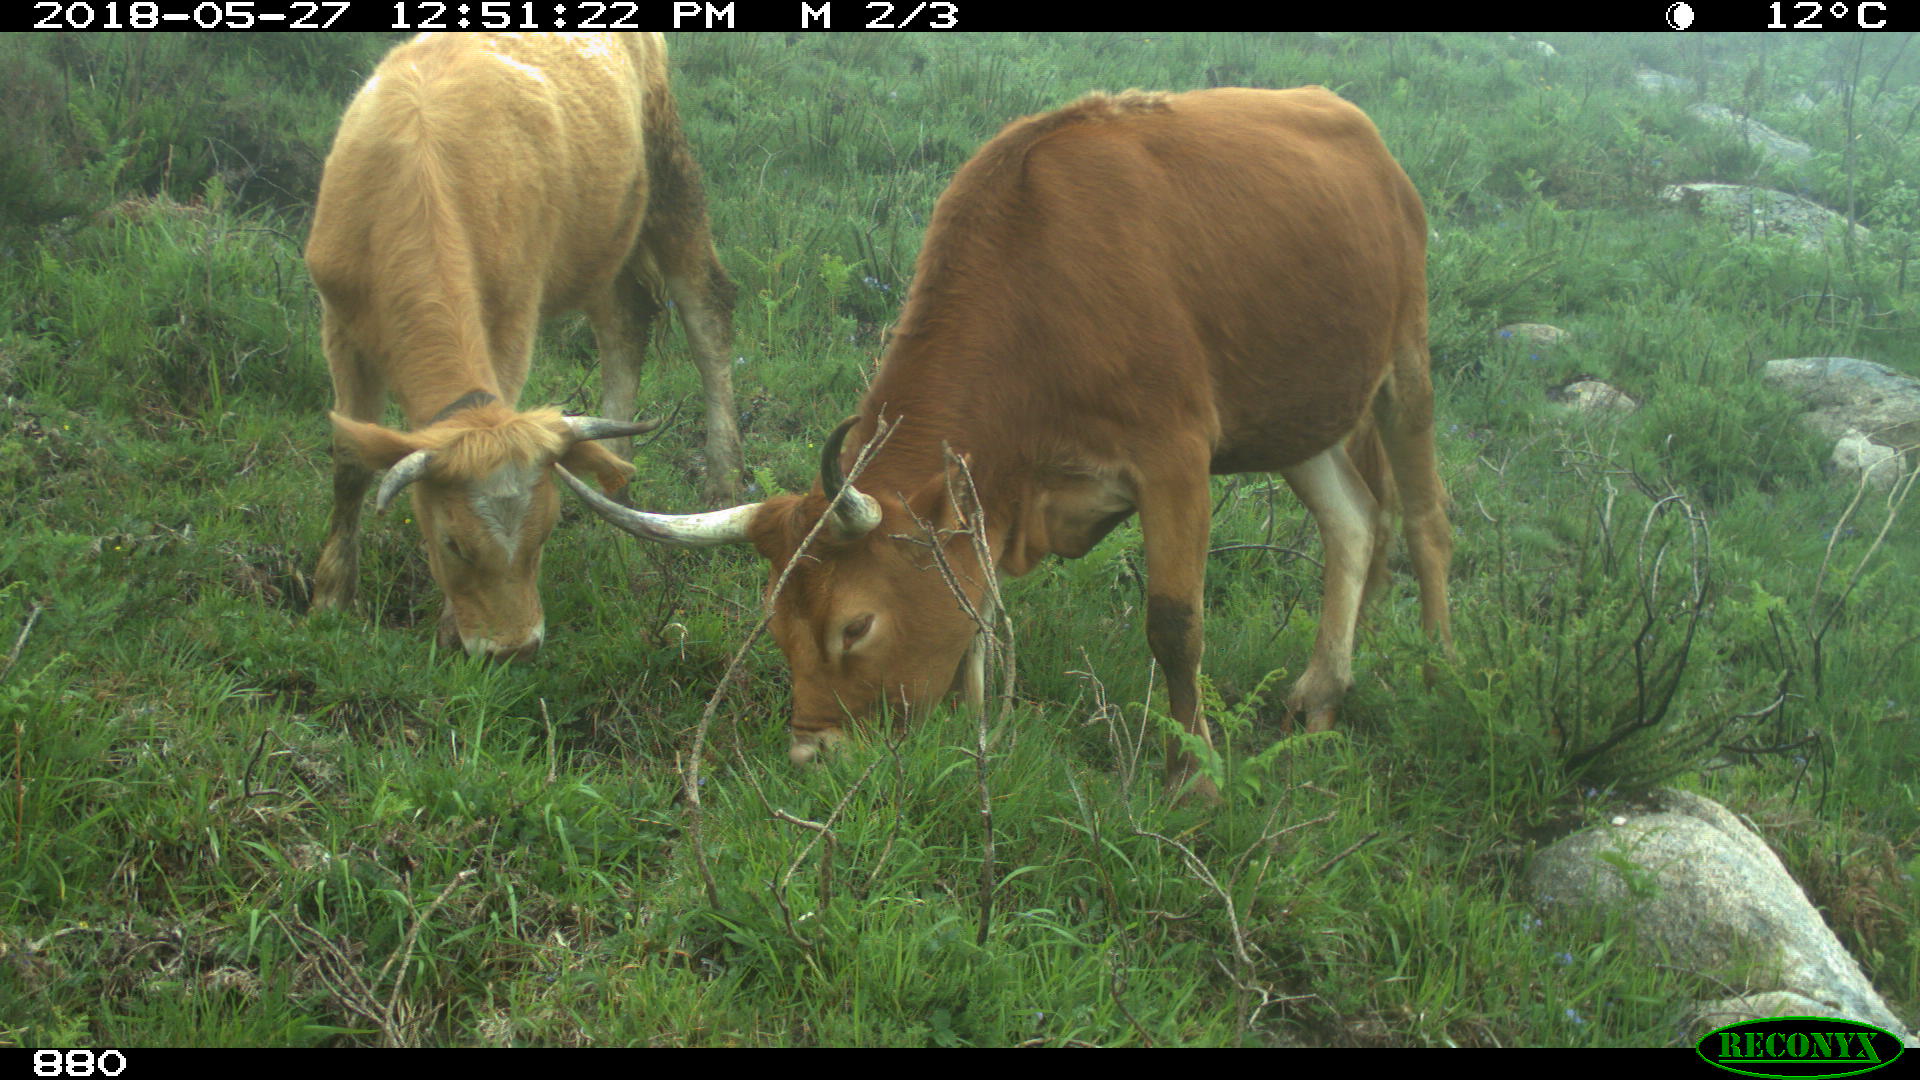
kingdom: Animalia
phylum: Chordata
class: Mammalia
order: Artiodactyla
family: Bovidae
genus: Bos
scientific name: Bos taurus
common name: Domesticated cattle
